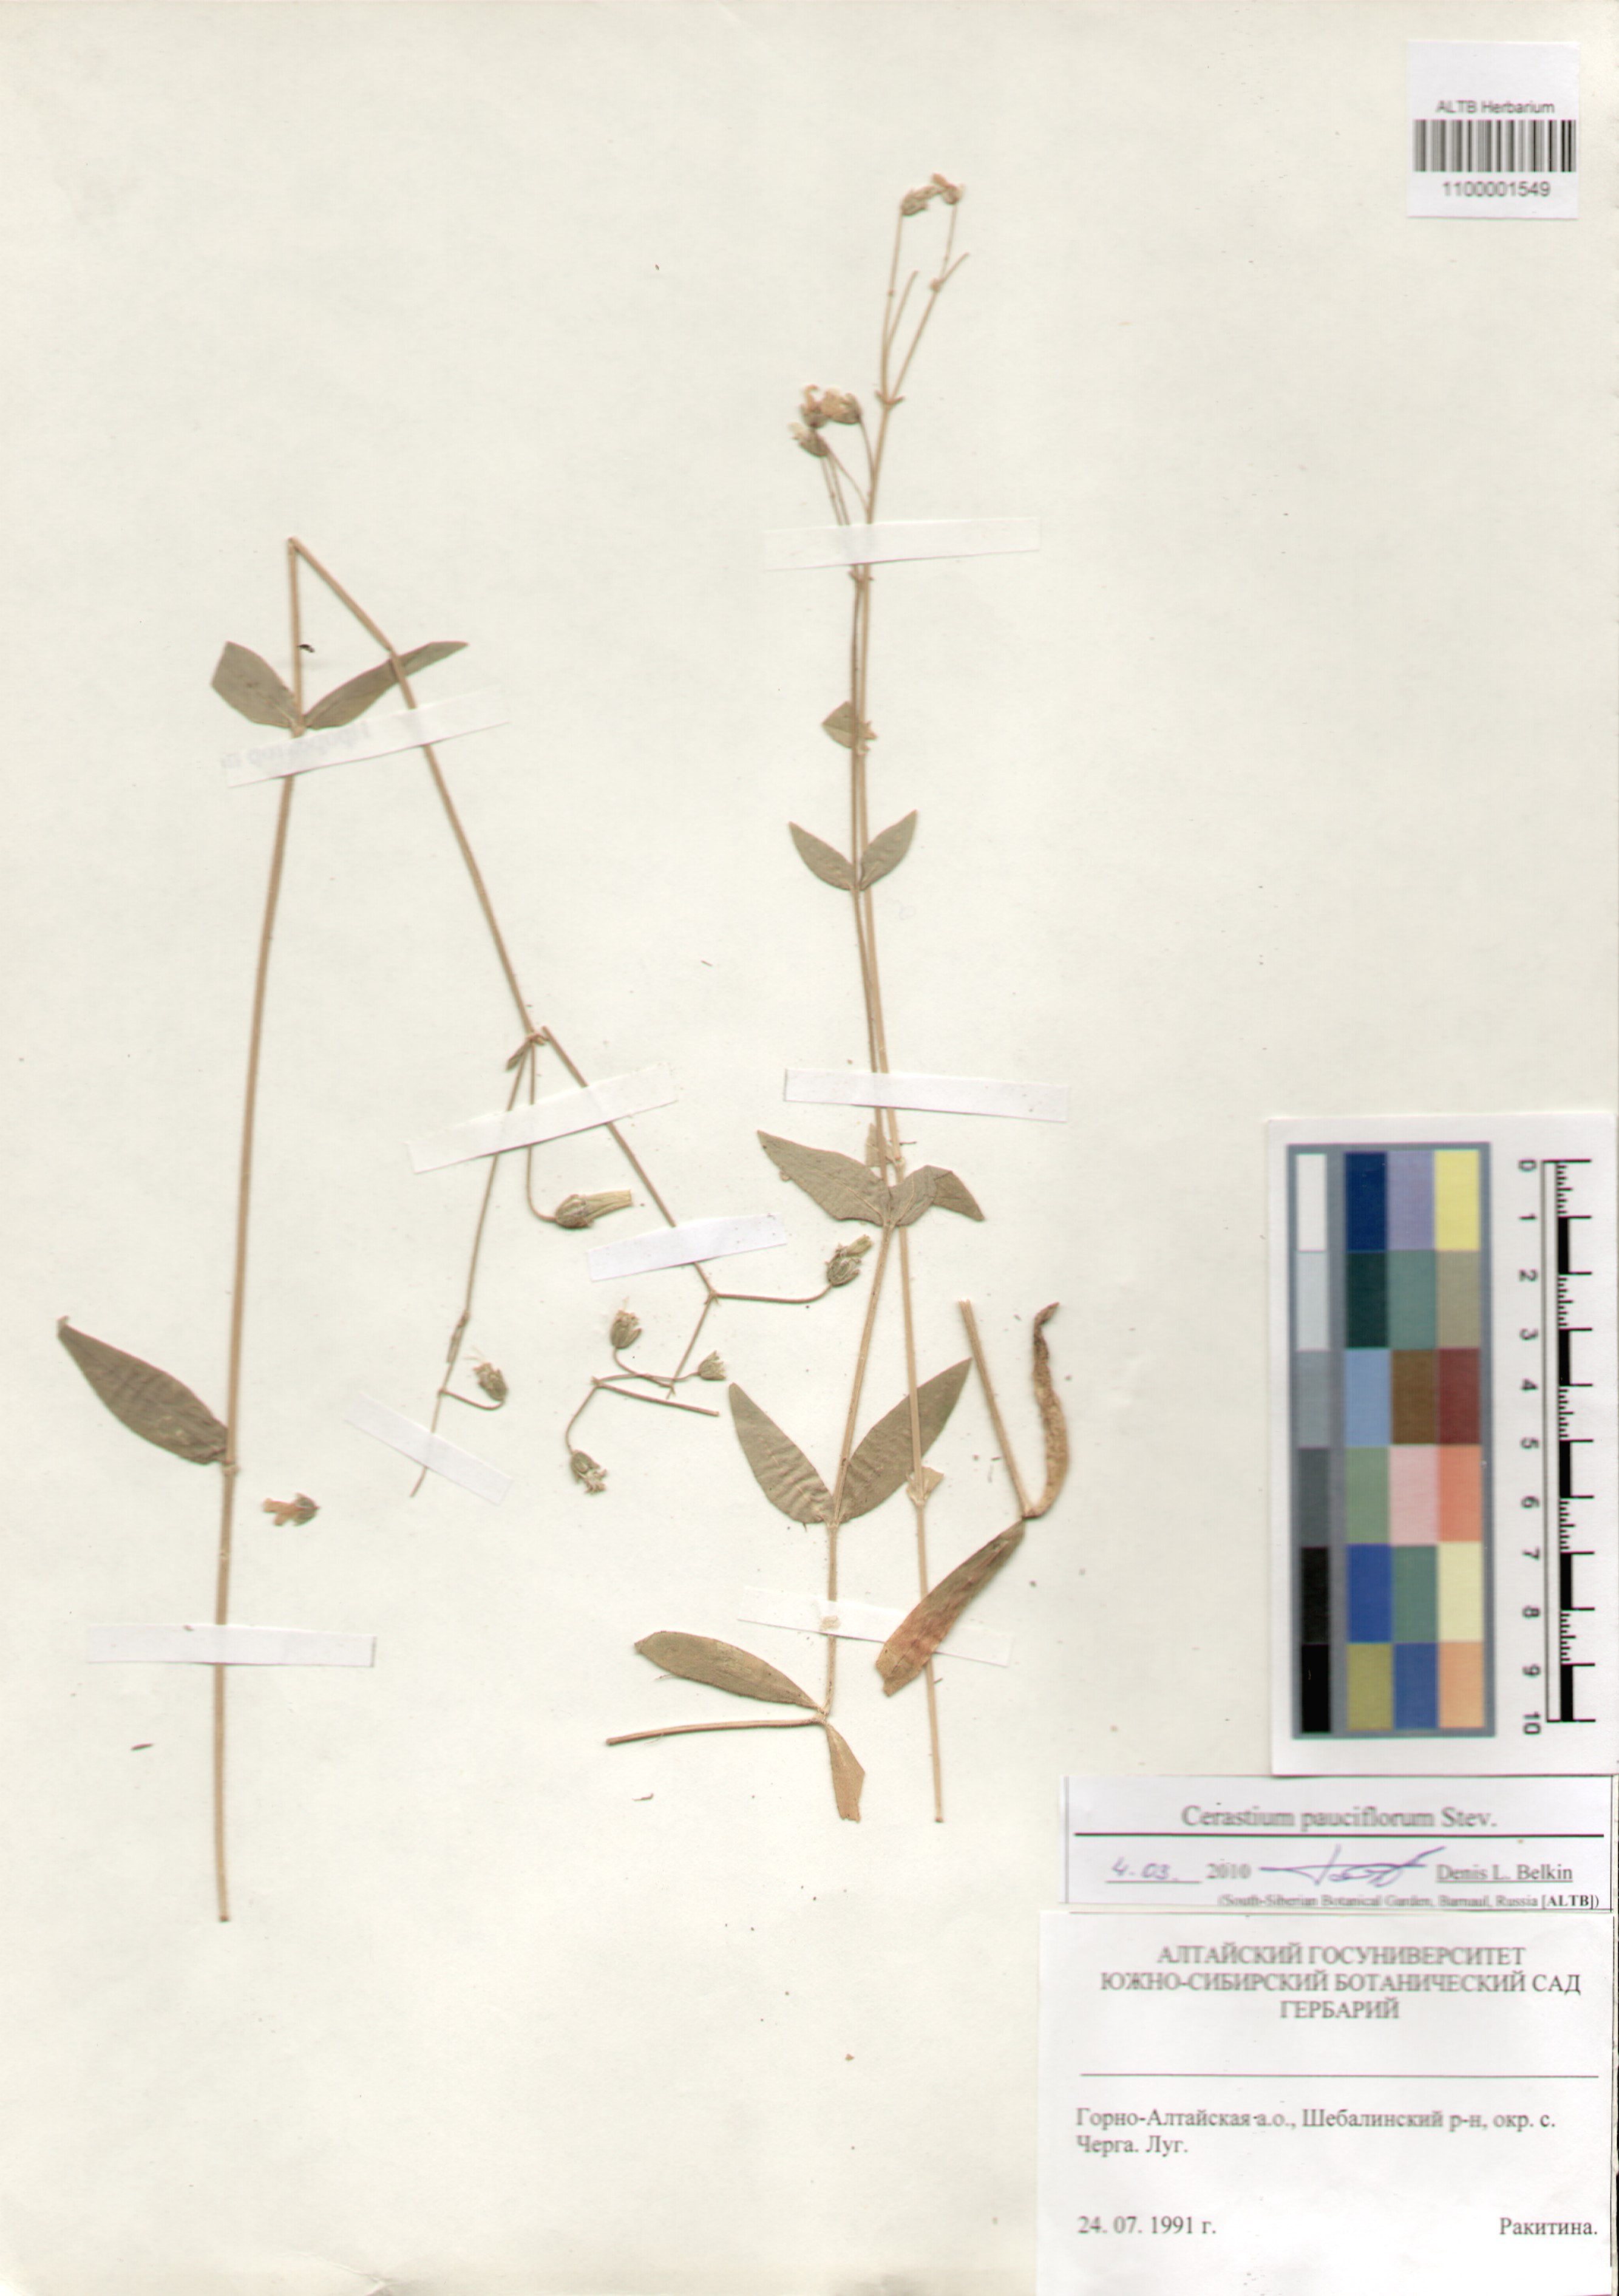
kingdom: Plantae
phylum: Tracheophyta
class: Magnoliopsida
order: Caryophyllales
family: Caryophyllaceae
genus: Cerastium
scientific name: Cerastium pauciflorum
